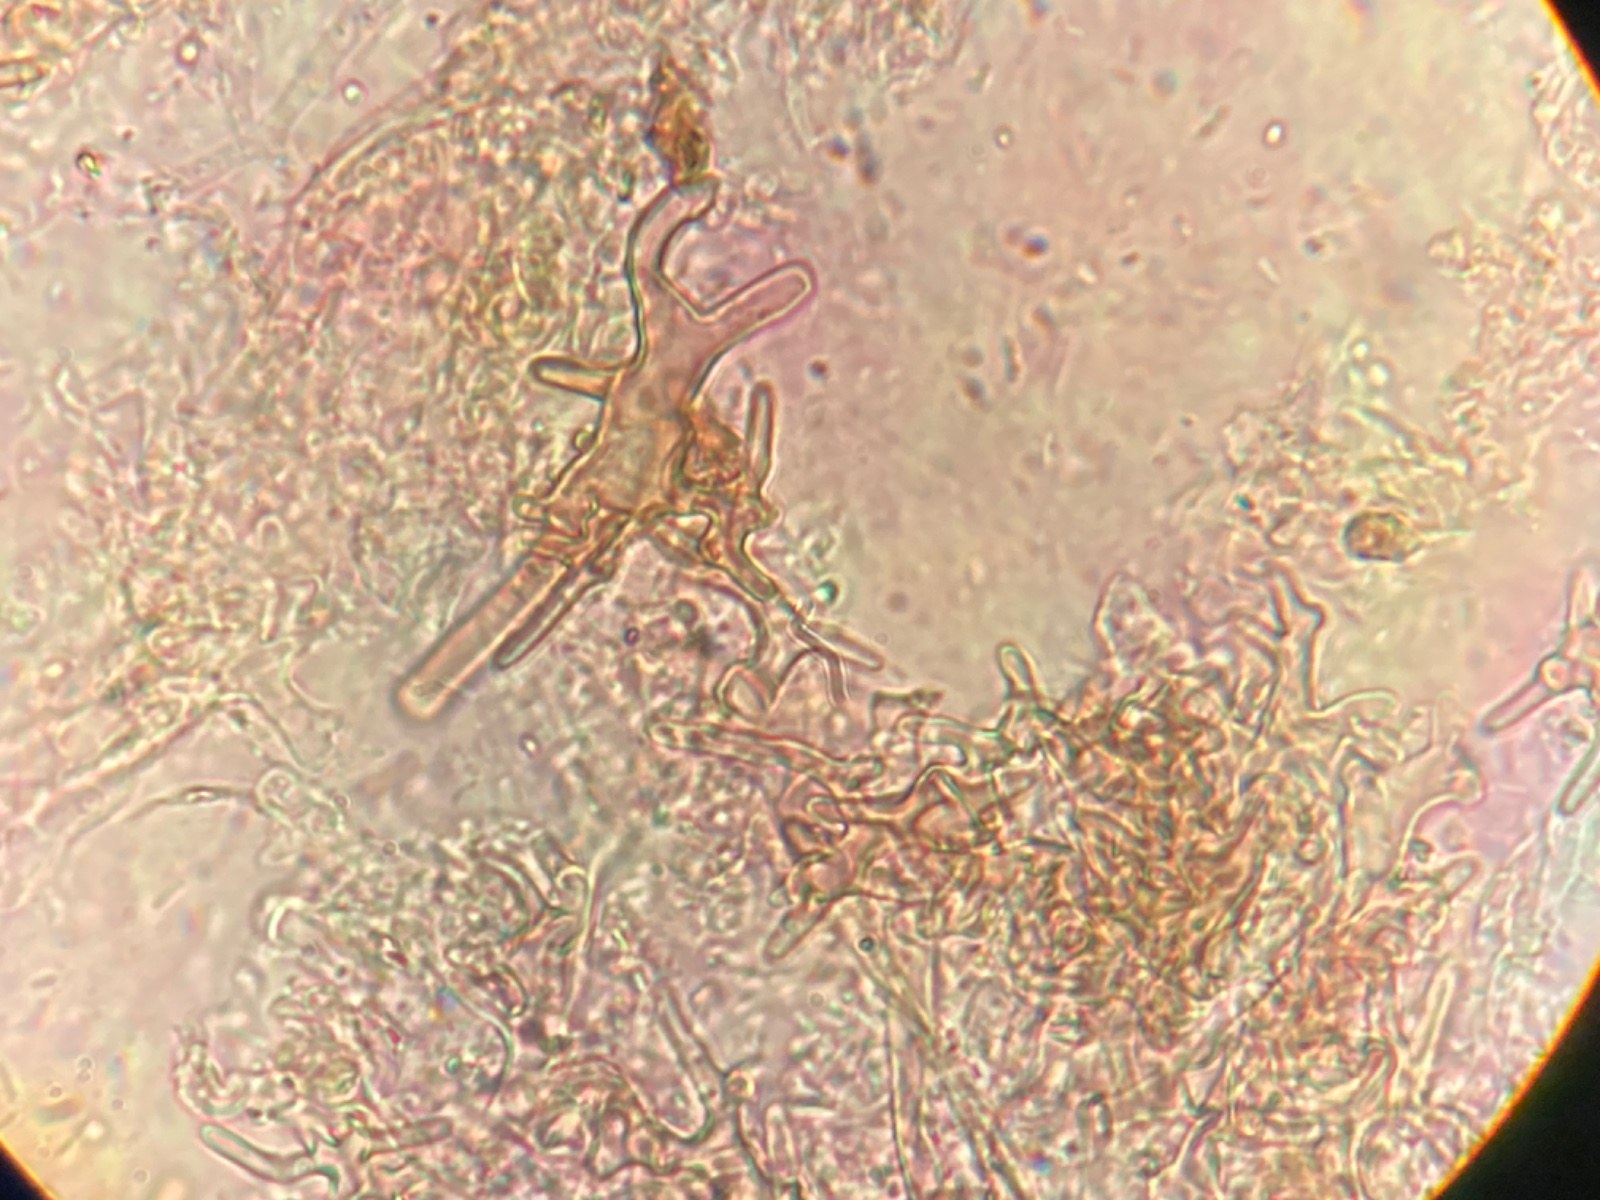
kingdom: Fungi
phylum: Basidiomycota
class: Agaricomycetes
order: Agaricales
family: Psathyrellaceae
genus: Coprinopsis
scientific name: Coprinopsis
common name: blækhat
